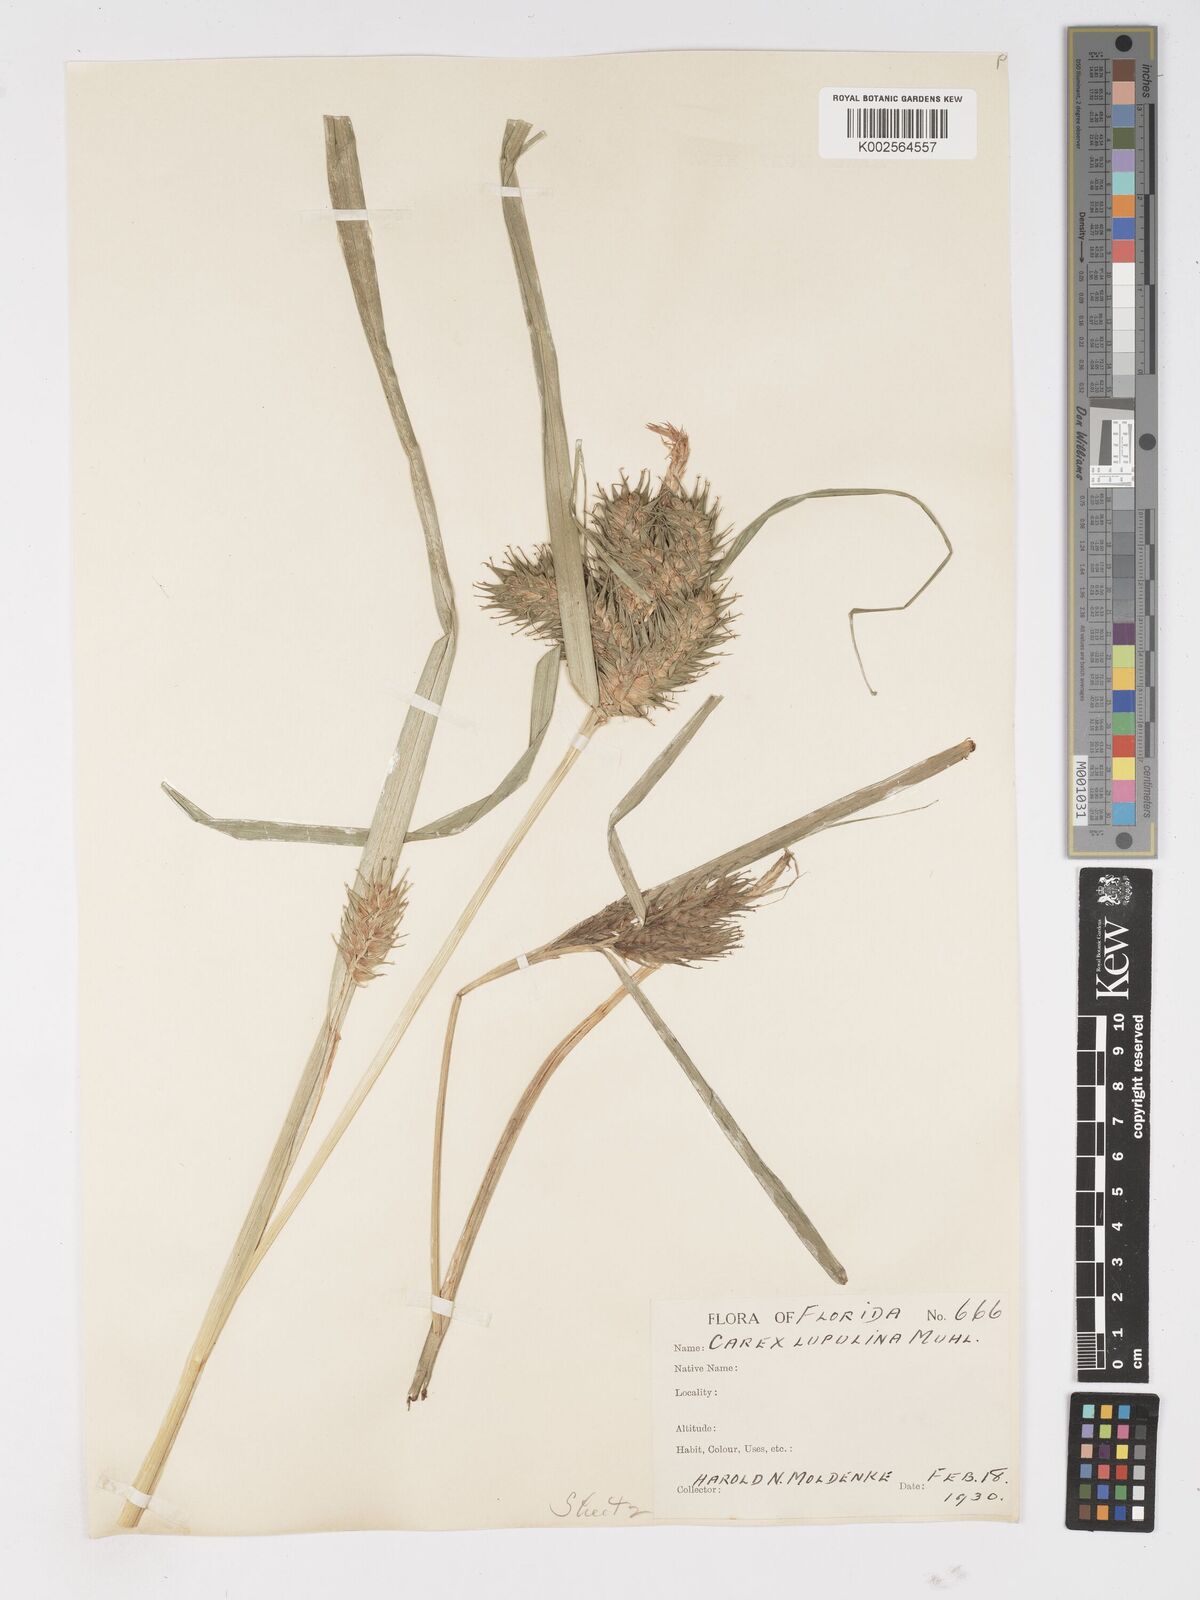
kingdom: Plantae
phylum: Tracheophyta
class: Liliopsida
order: Poales
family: Cyperaceae
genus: Carex
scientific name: Carex lupulina
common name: Hop sedge
